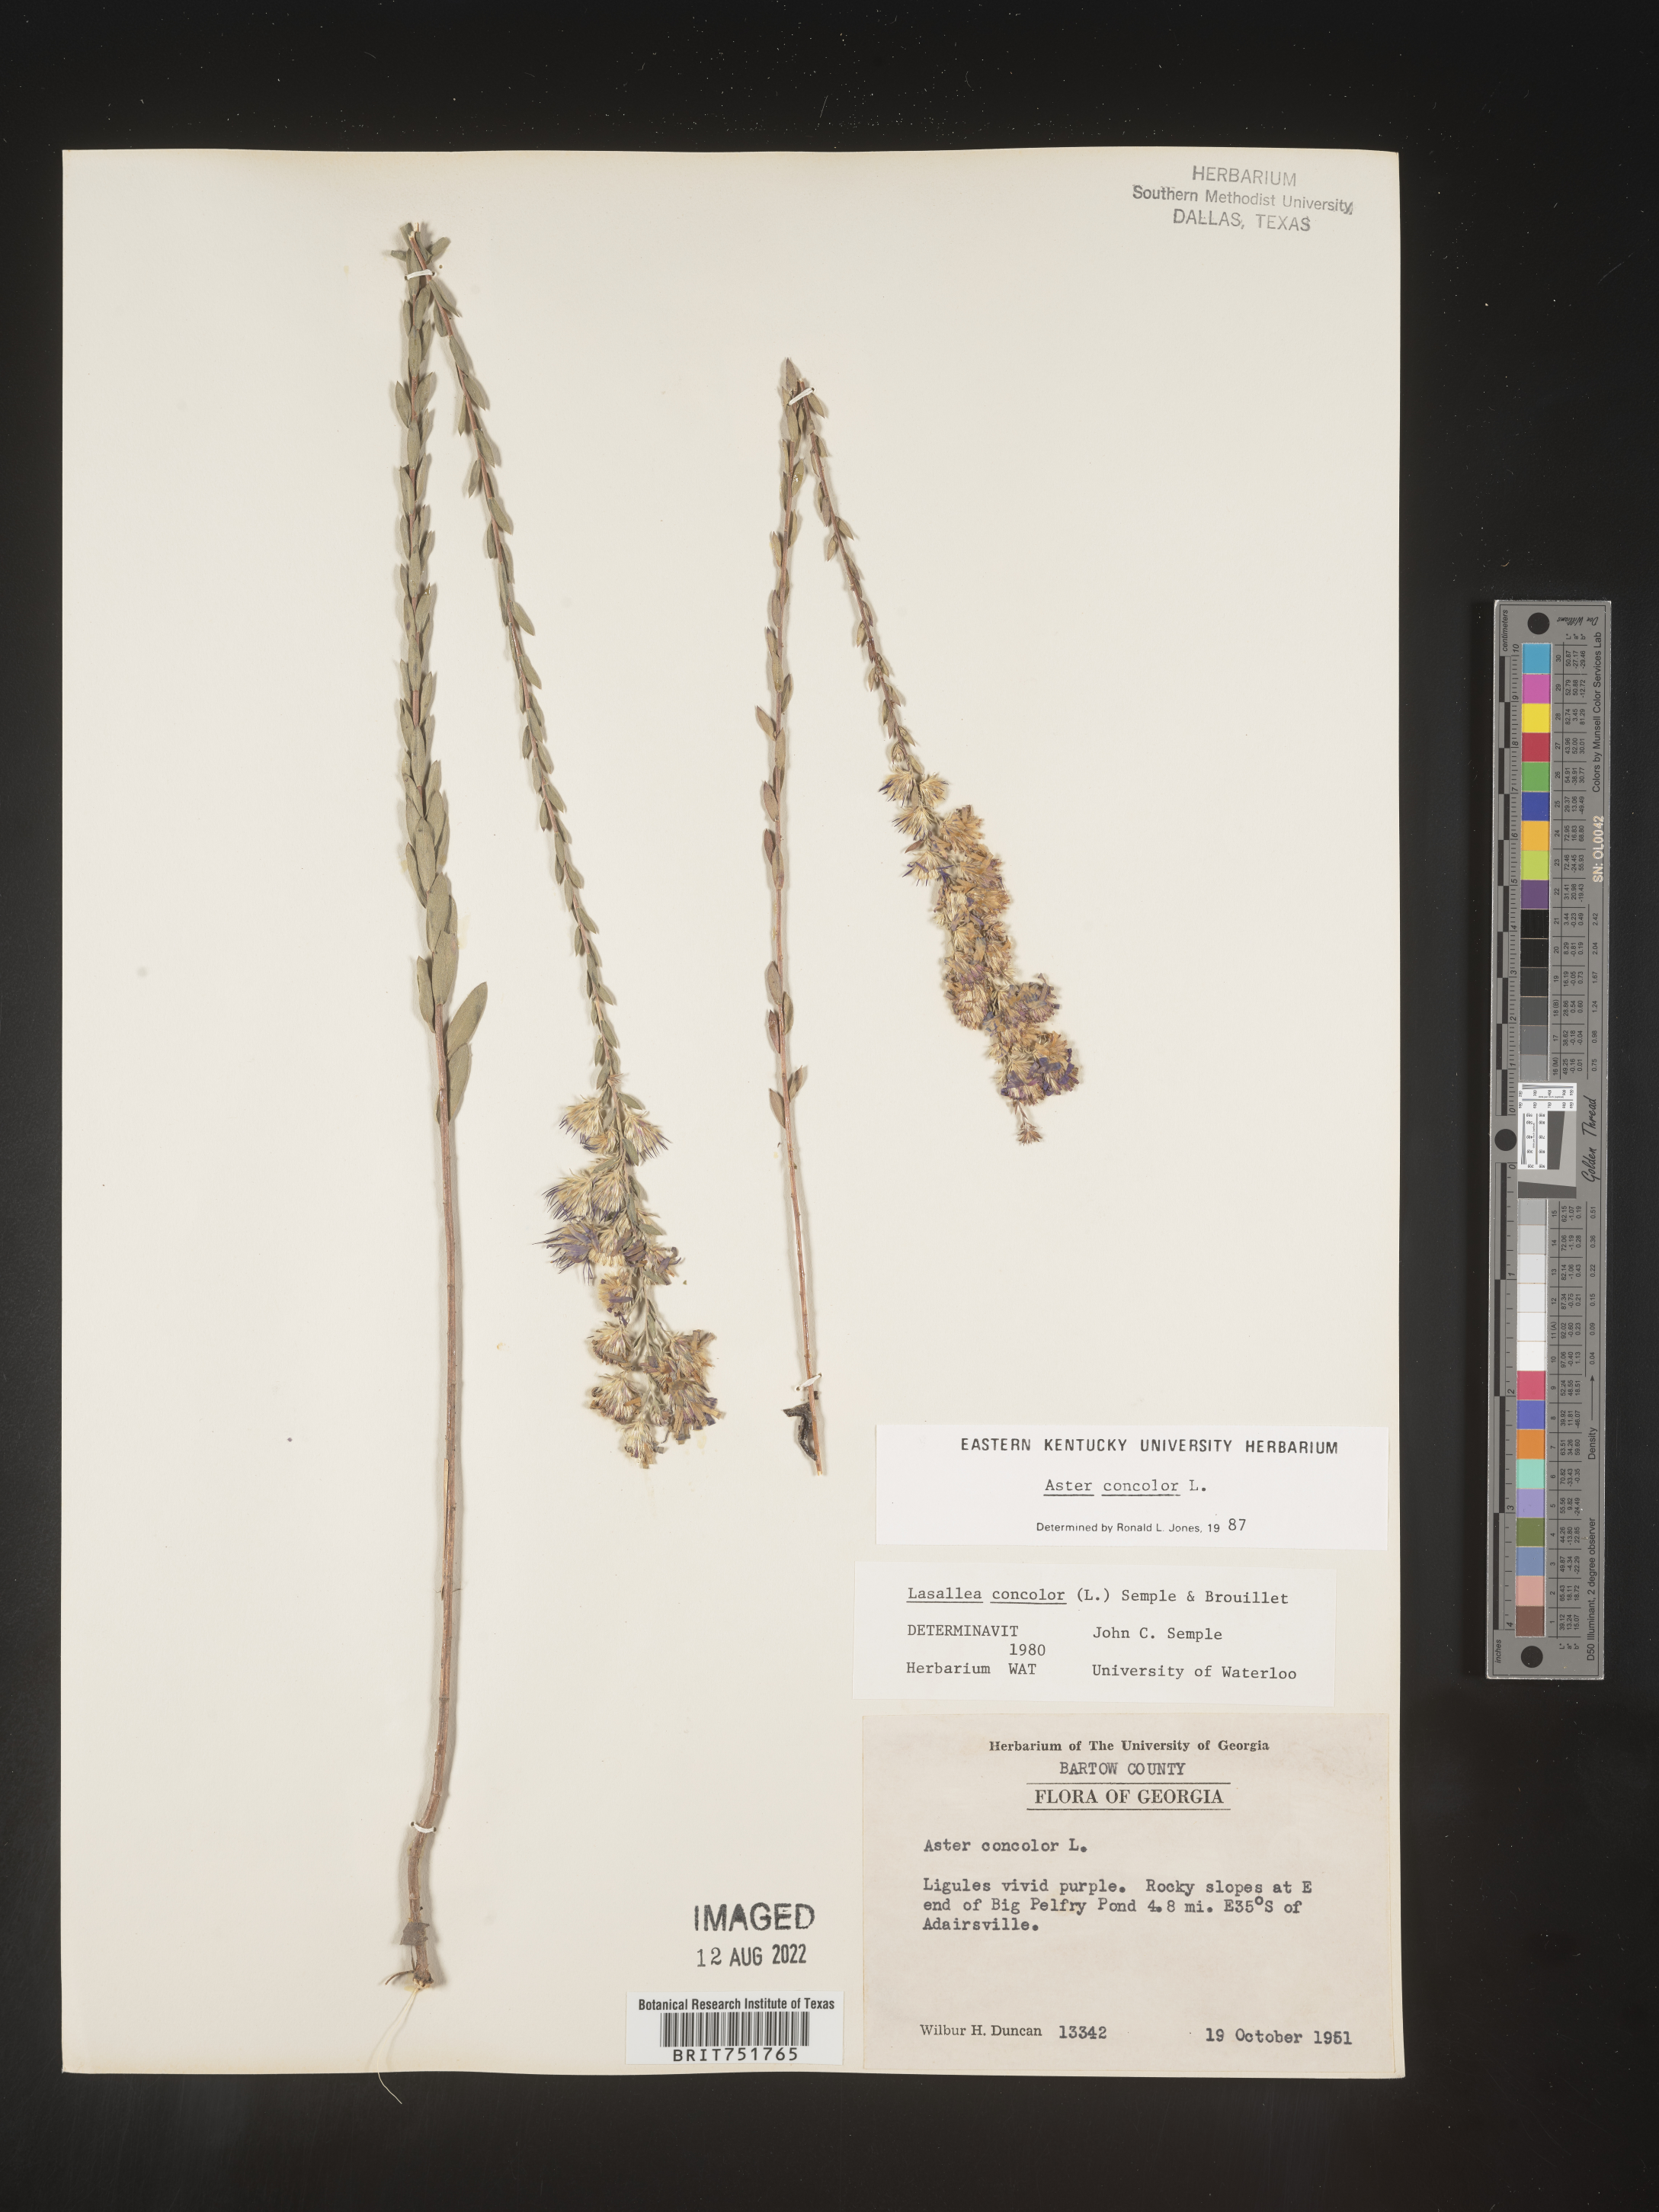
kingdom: Plantae
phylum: Tracheophyta
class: Magnoliopsida
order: Asterales
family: Asteraceae
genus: Symphyotrichum
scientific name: Symphyotrichum concolor
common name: Eastern silver aster
